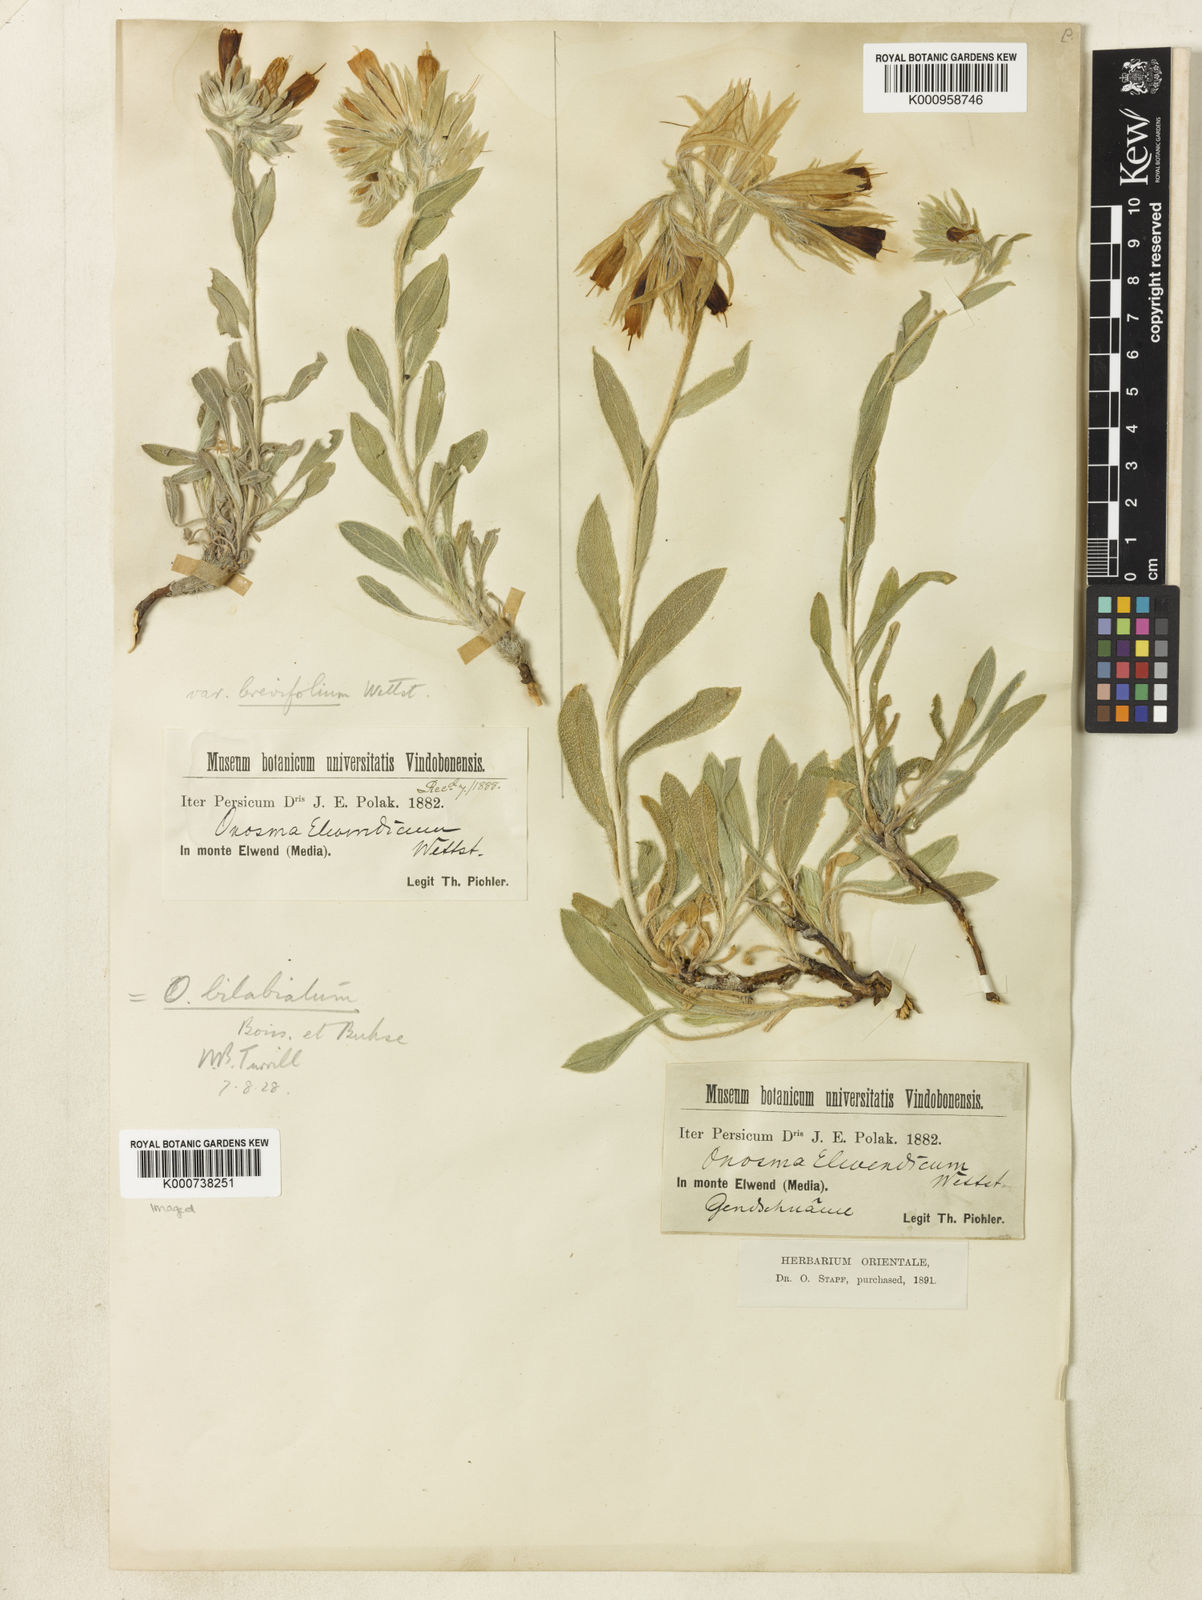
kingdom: Plantae
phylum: Tracheophyta
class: Magnoliopsida
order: Boraginales
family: Boraginaceae
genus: Onosma
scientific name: Onosma bilabiata
